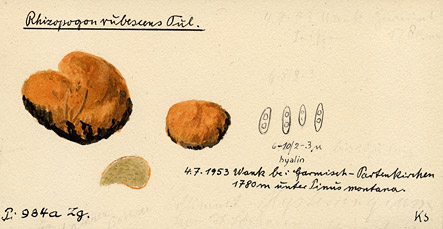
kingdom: Fungi
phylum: Basidiomycota
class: Agaricomycetes
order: Boletales
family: Rhizopogonaceae
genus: Rhizopogon
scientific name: Rhizopogon roseolus
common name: Blushing beard truffle
